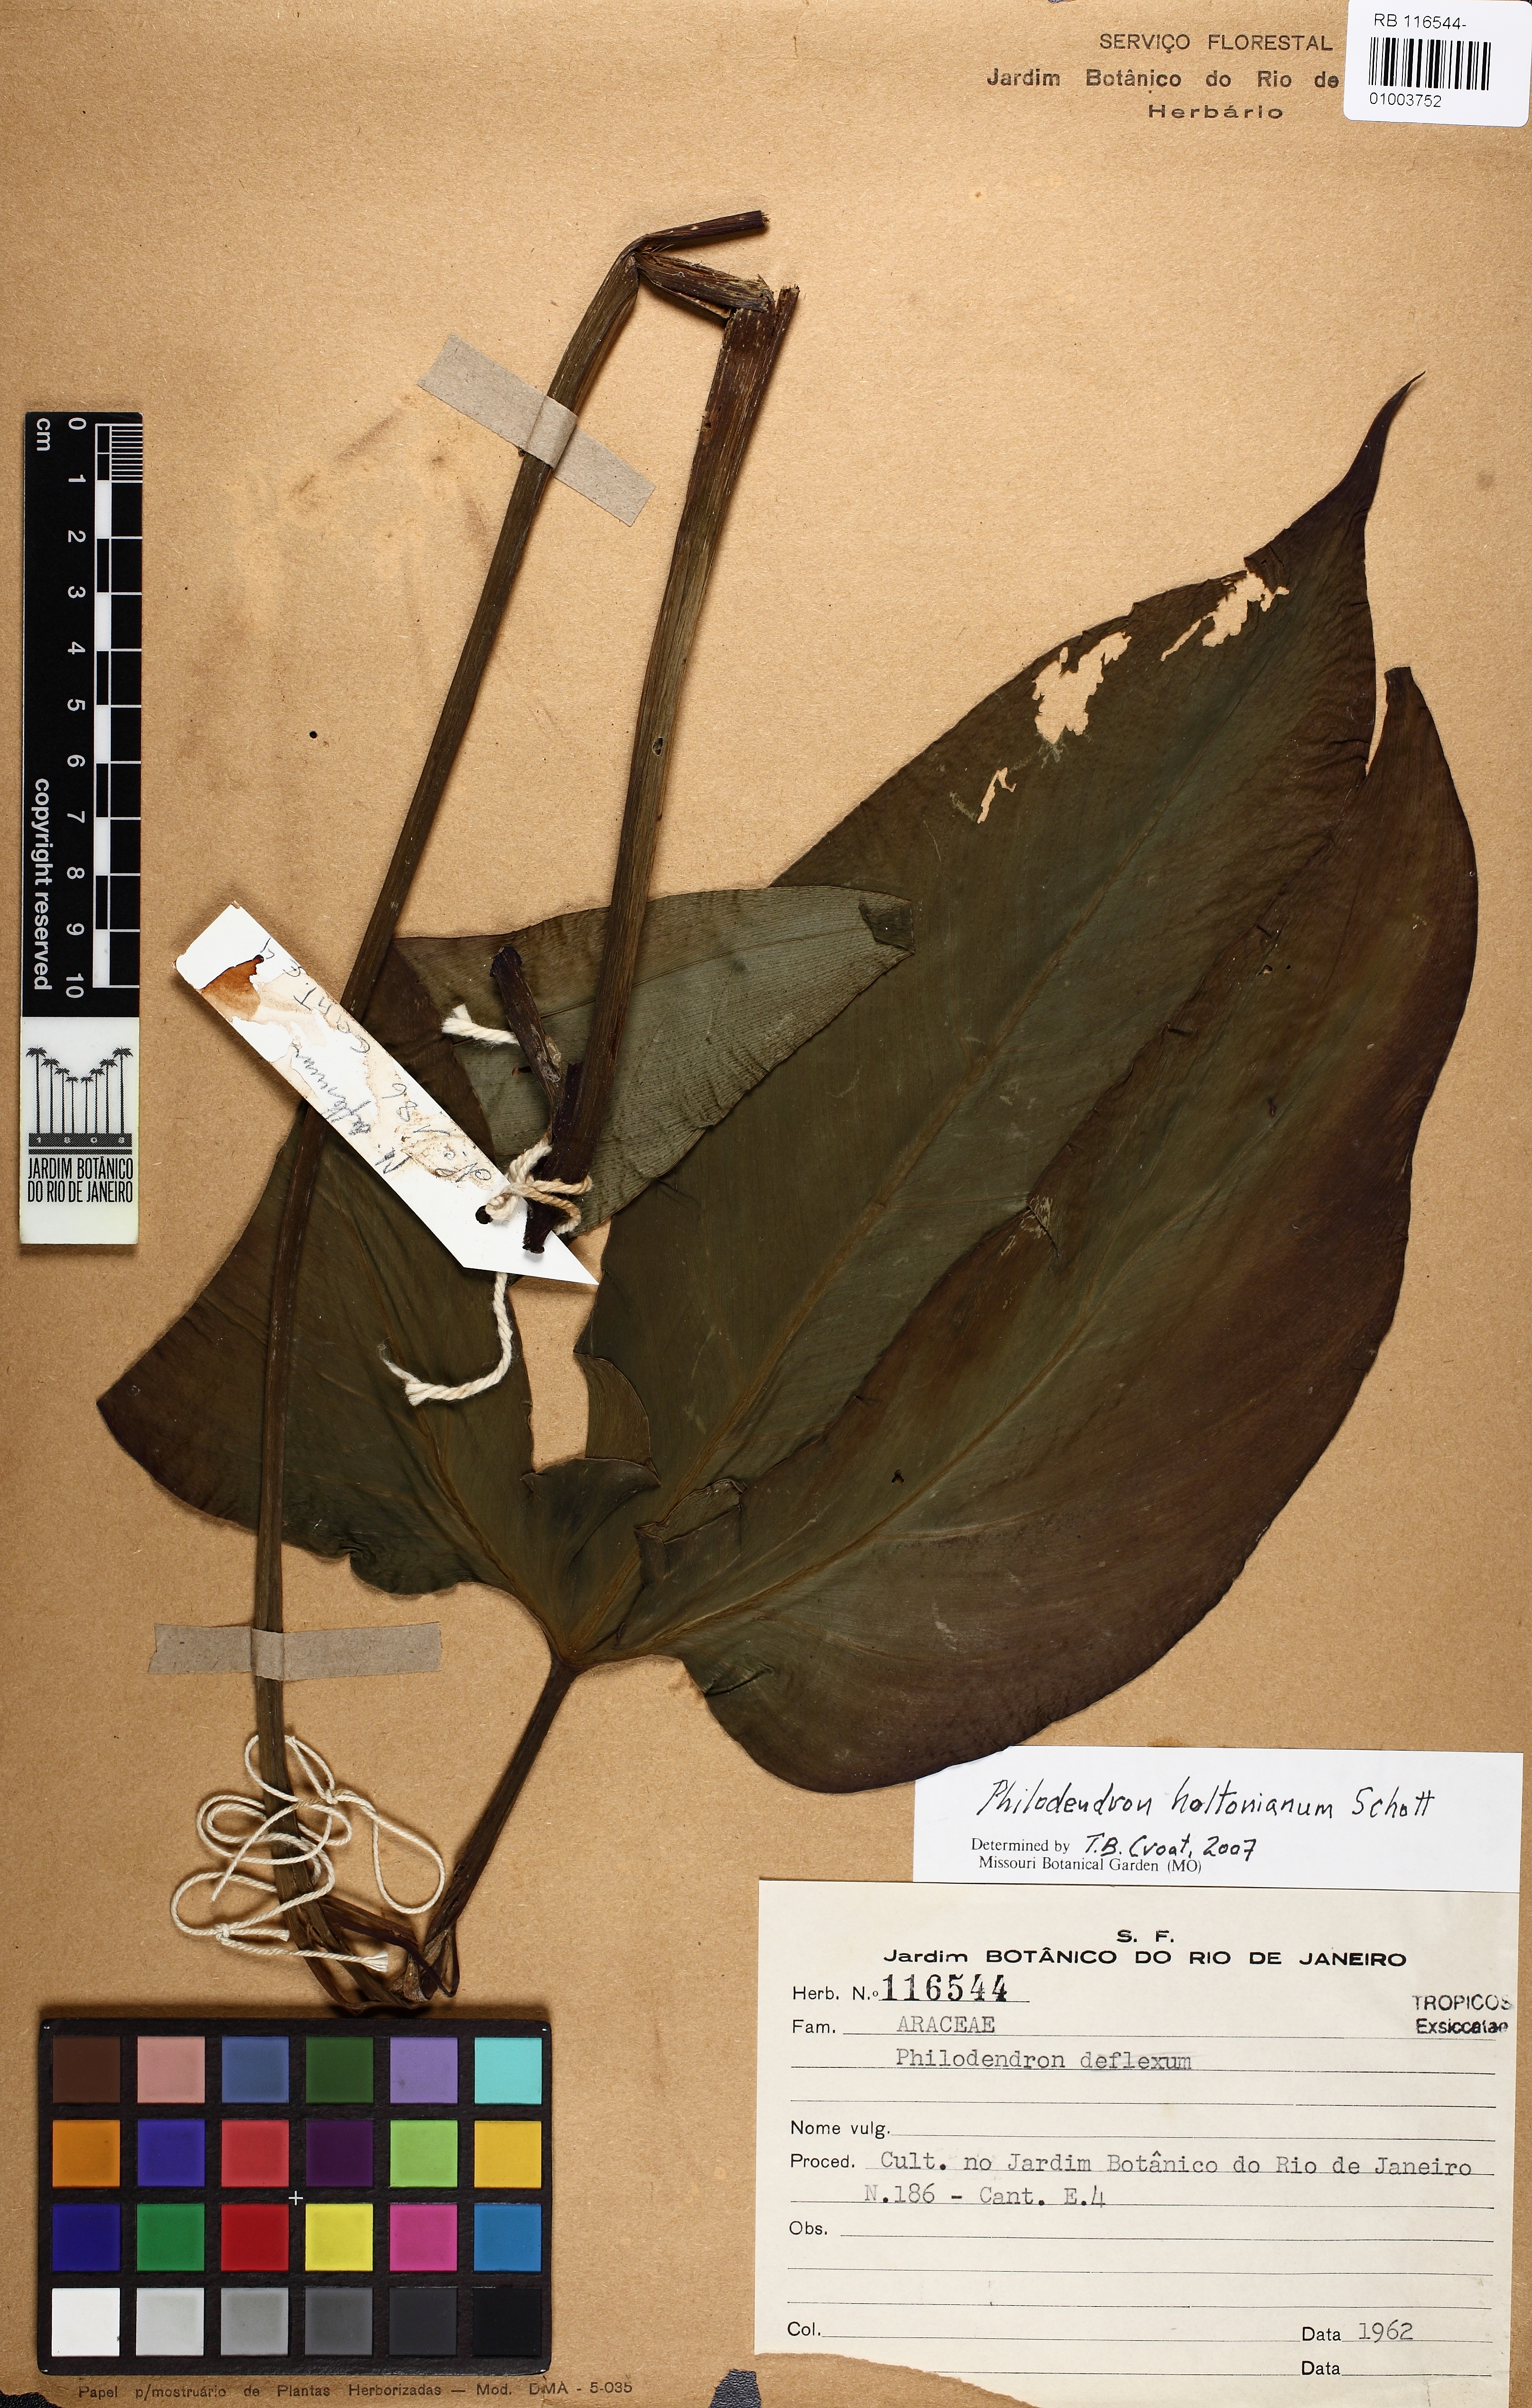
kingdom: Plantae
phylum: Tracheophyta
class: Liliopsida
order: Alismatales
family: Araceae
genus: Philodendron
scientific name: Philodendron tripartitum
